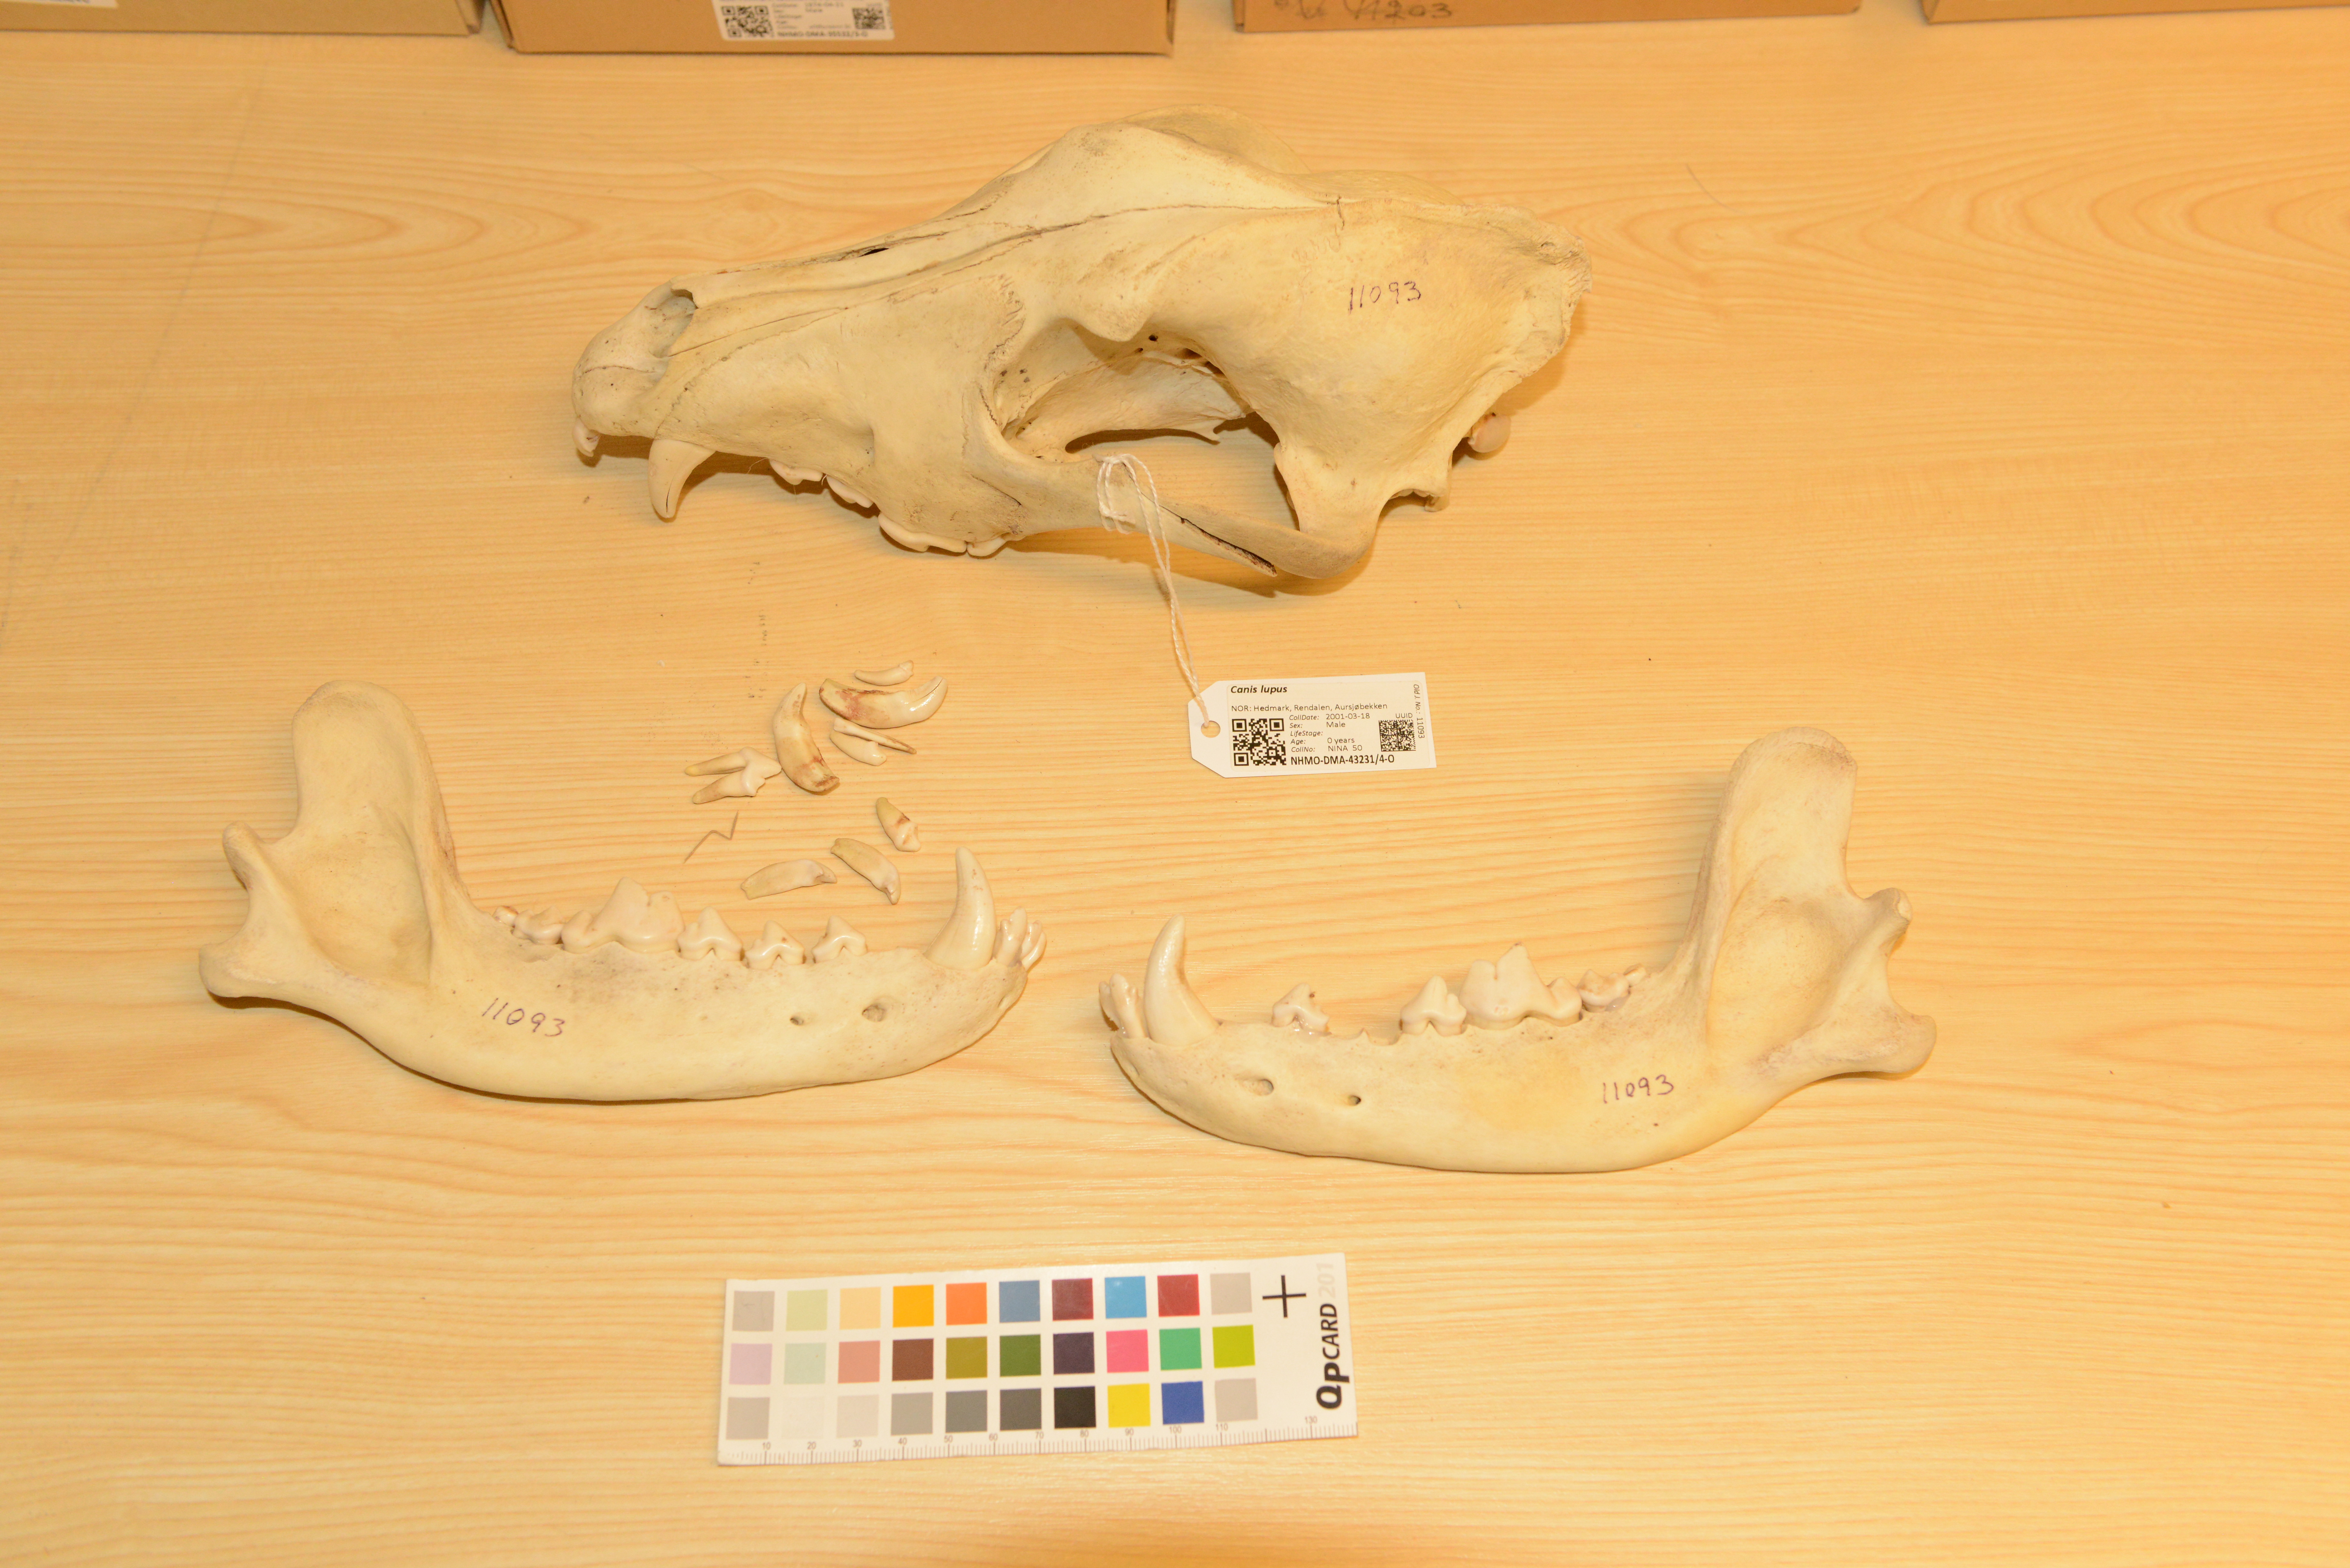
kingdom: Animalia
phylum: Chordata
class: Mammalia
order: Carnivora
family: Canidae
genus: Canis
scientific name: Canis lupus
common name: Gray wolf
